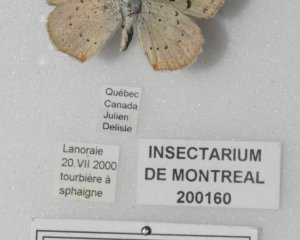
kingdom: Animalia
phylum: Arthropoda
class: Insecta
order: Lepidoptera
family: Sesiidae
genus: Sesia
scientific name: Sesia Lycaena epixanthe
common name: Bog Copper
